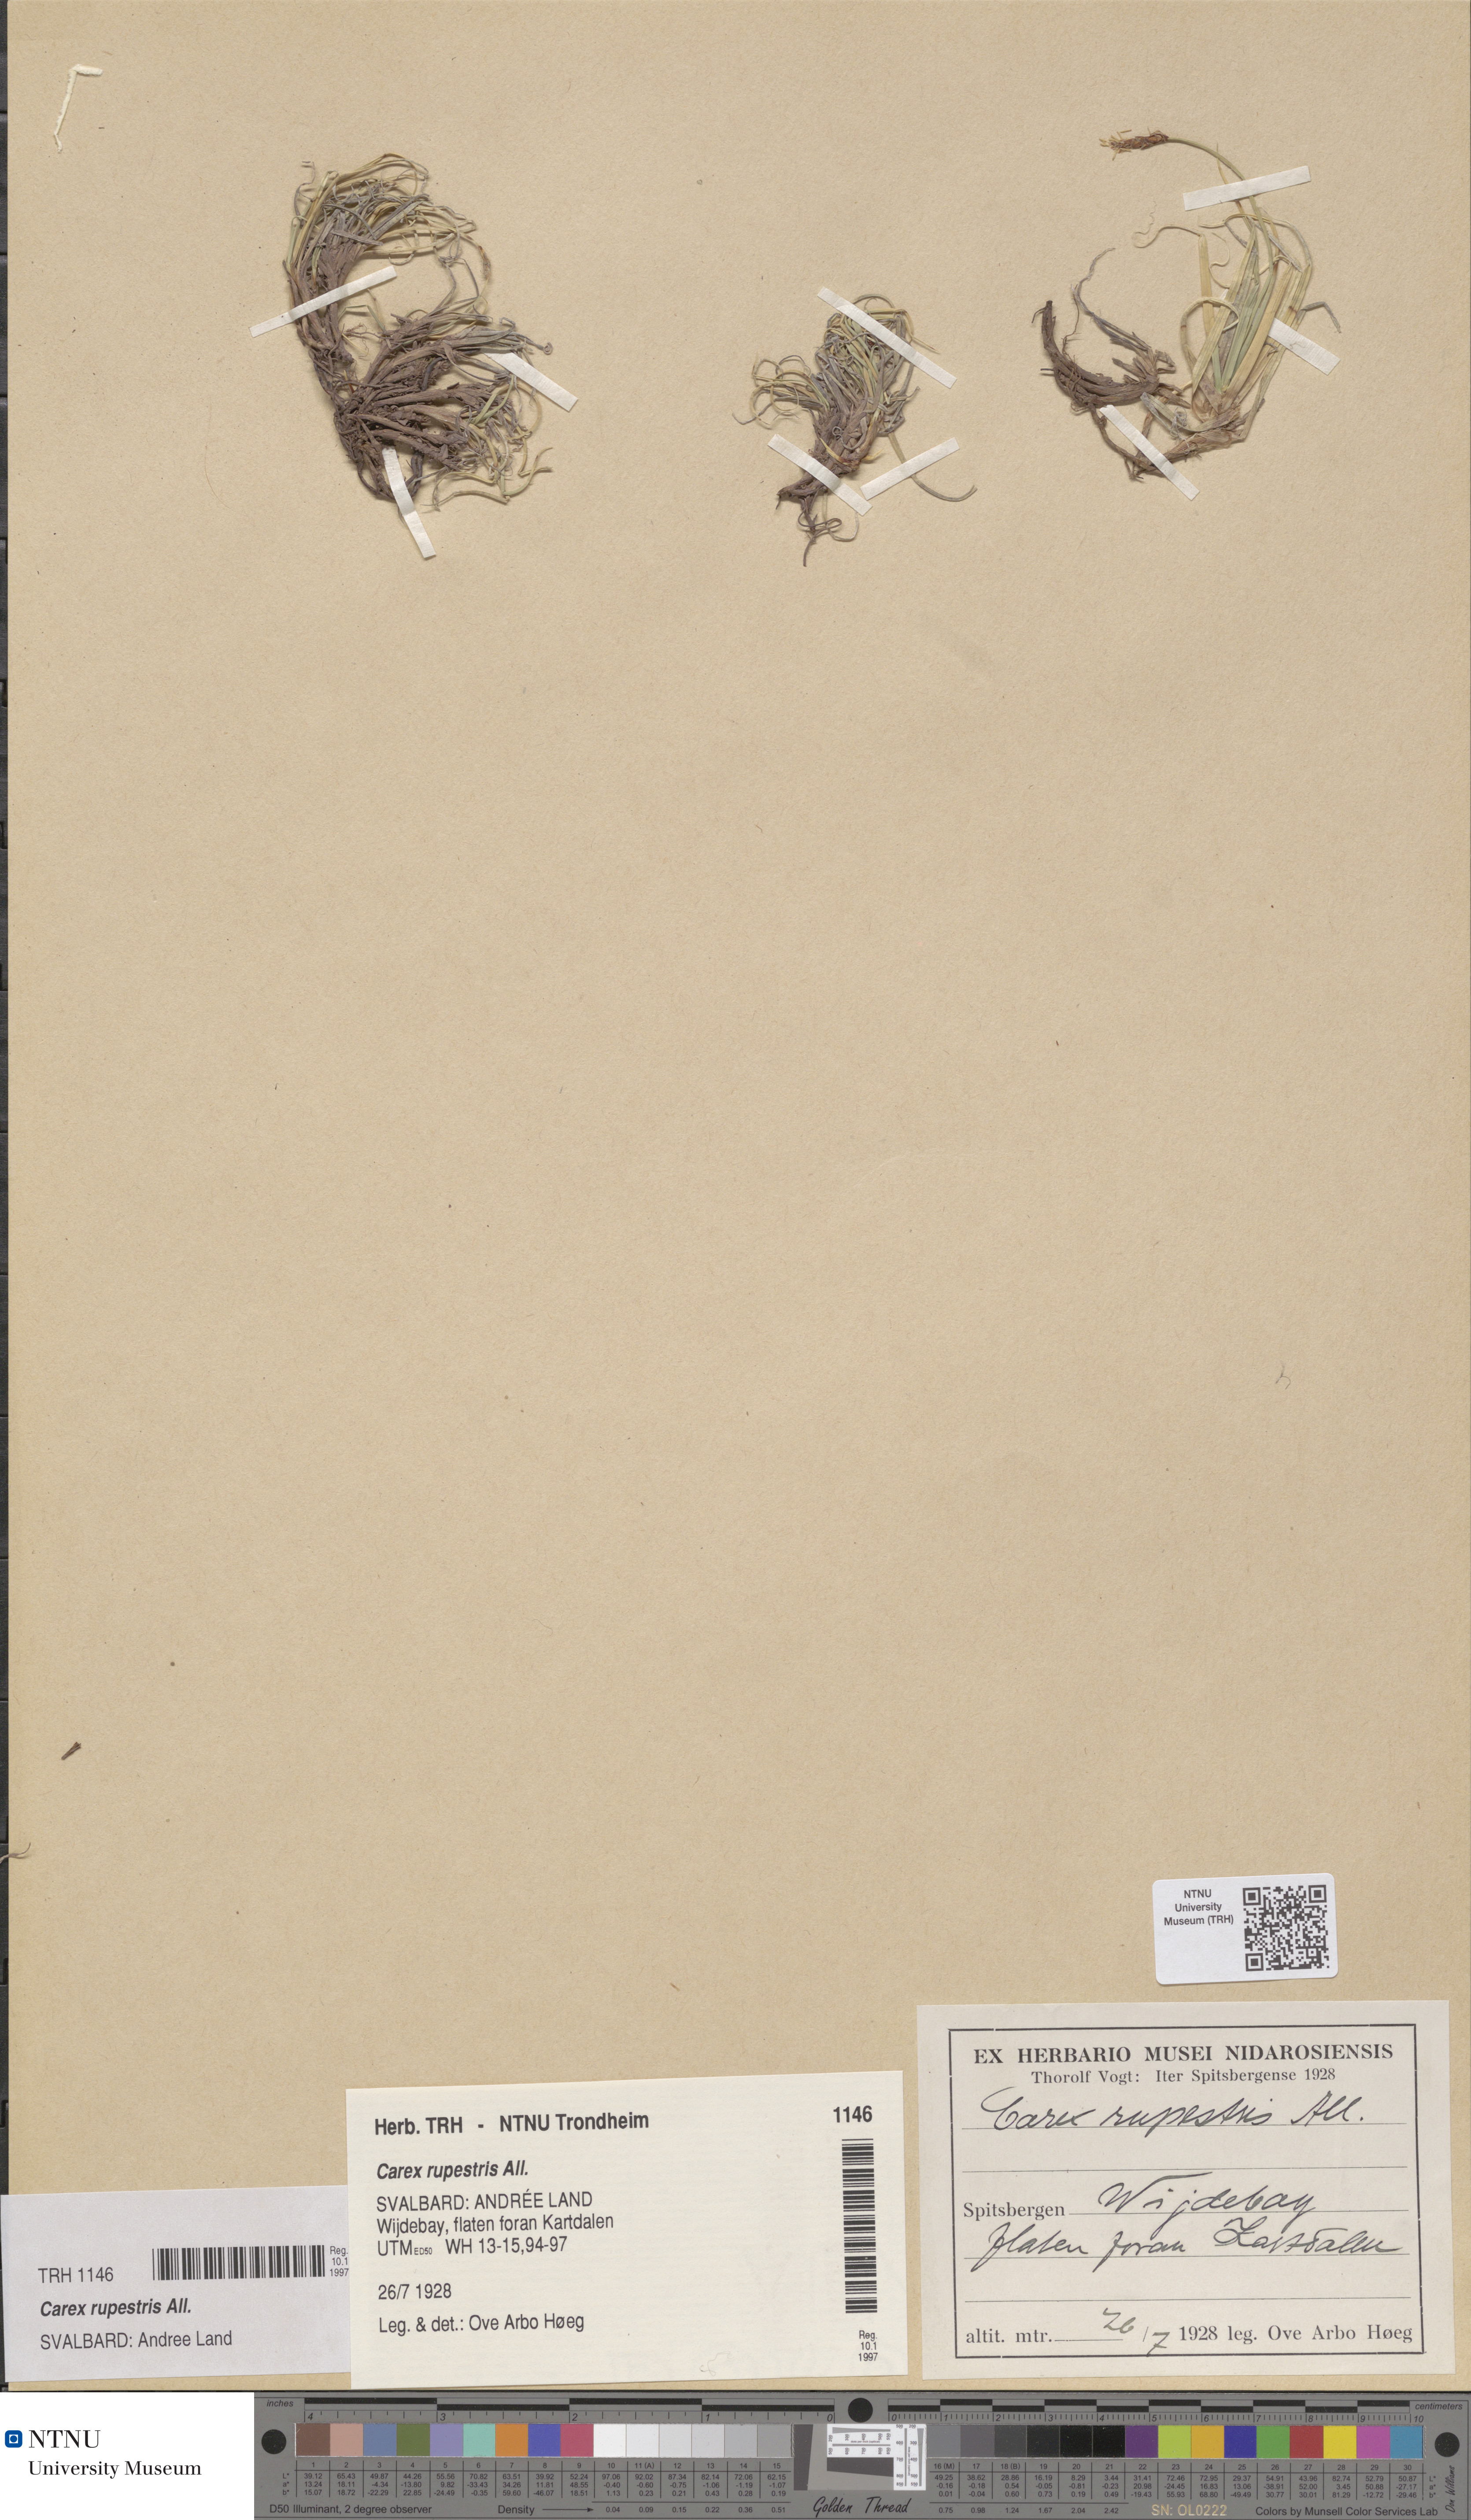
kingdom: Plantae
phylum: Tracheophyta
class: Liliopsida
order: Poales
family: Cyperaceae
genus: Carex
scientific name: Carex rupestris
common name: Rock sedge
